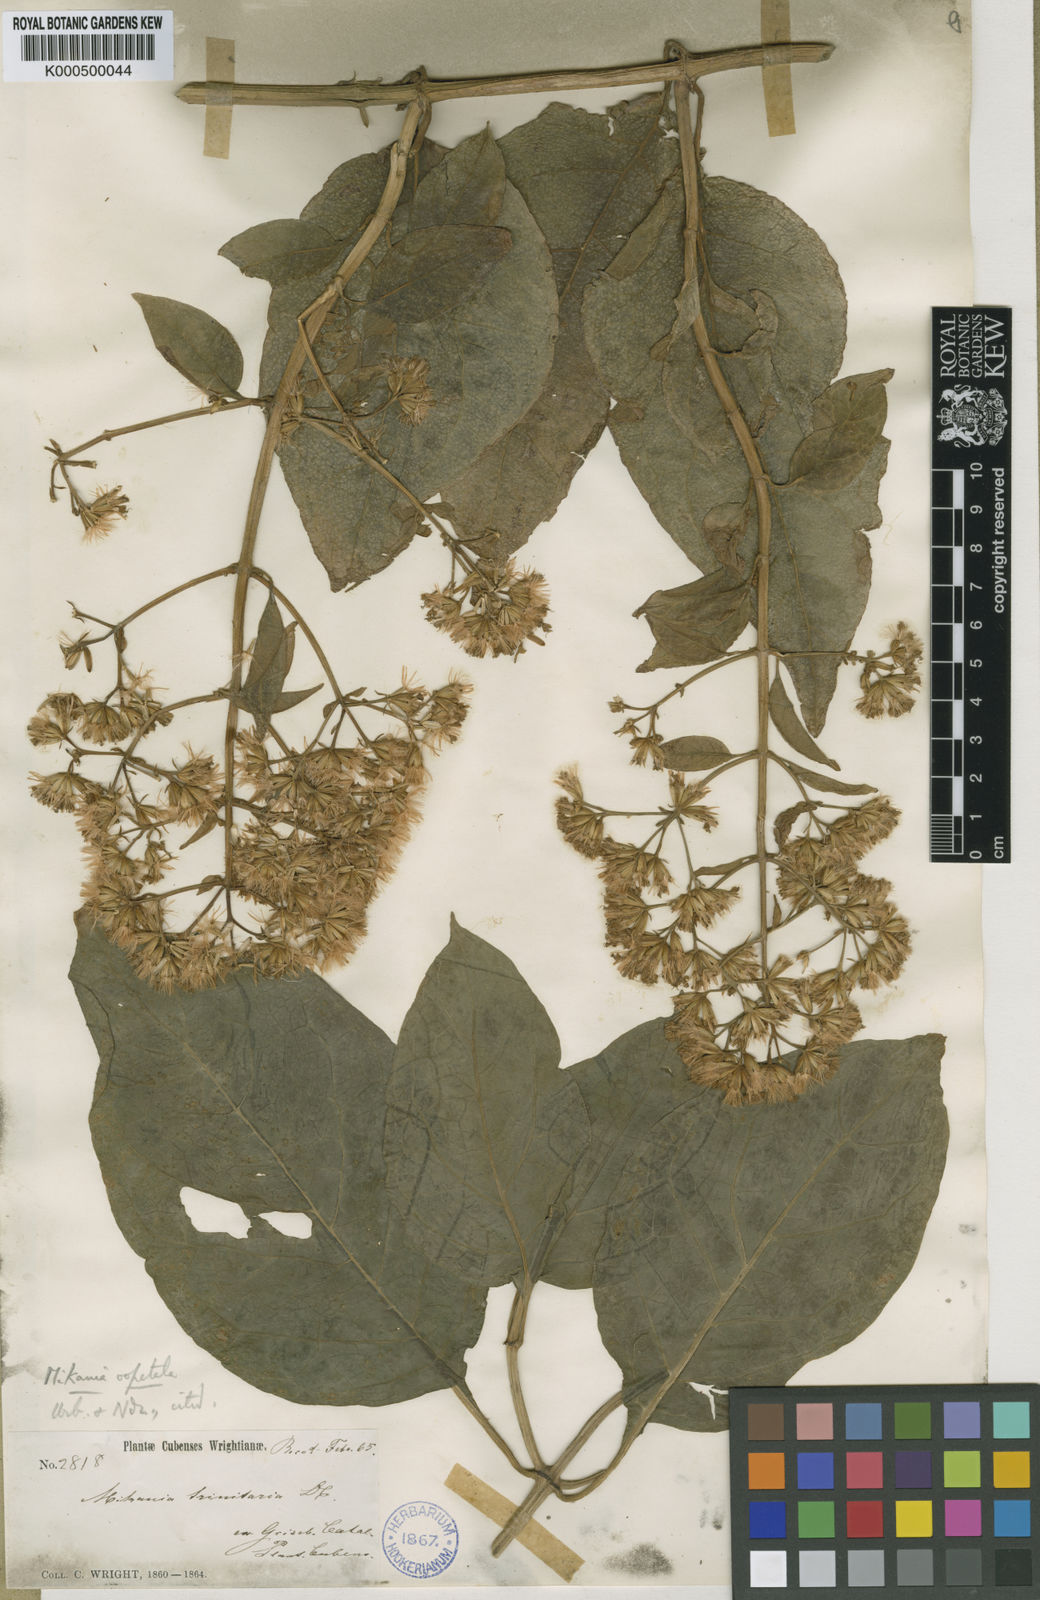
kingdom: Plantae
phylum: Tracheophyta
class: Magnoliopsida
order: Asterales
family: Asteraceae
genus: Mikania
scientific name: Mikania oopetala
